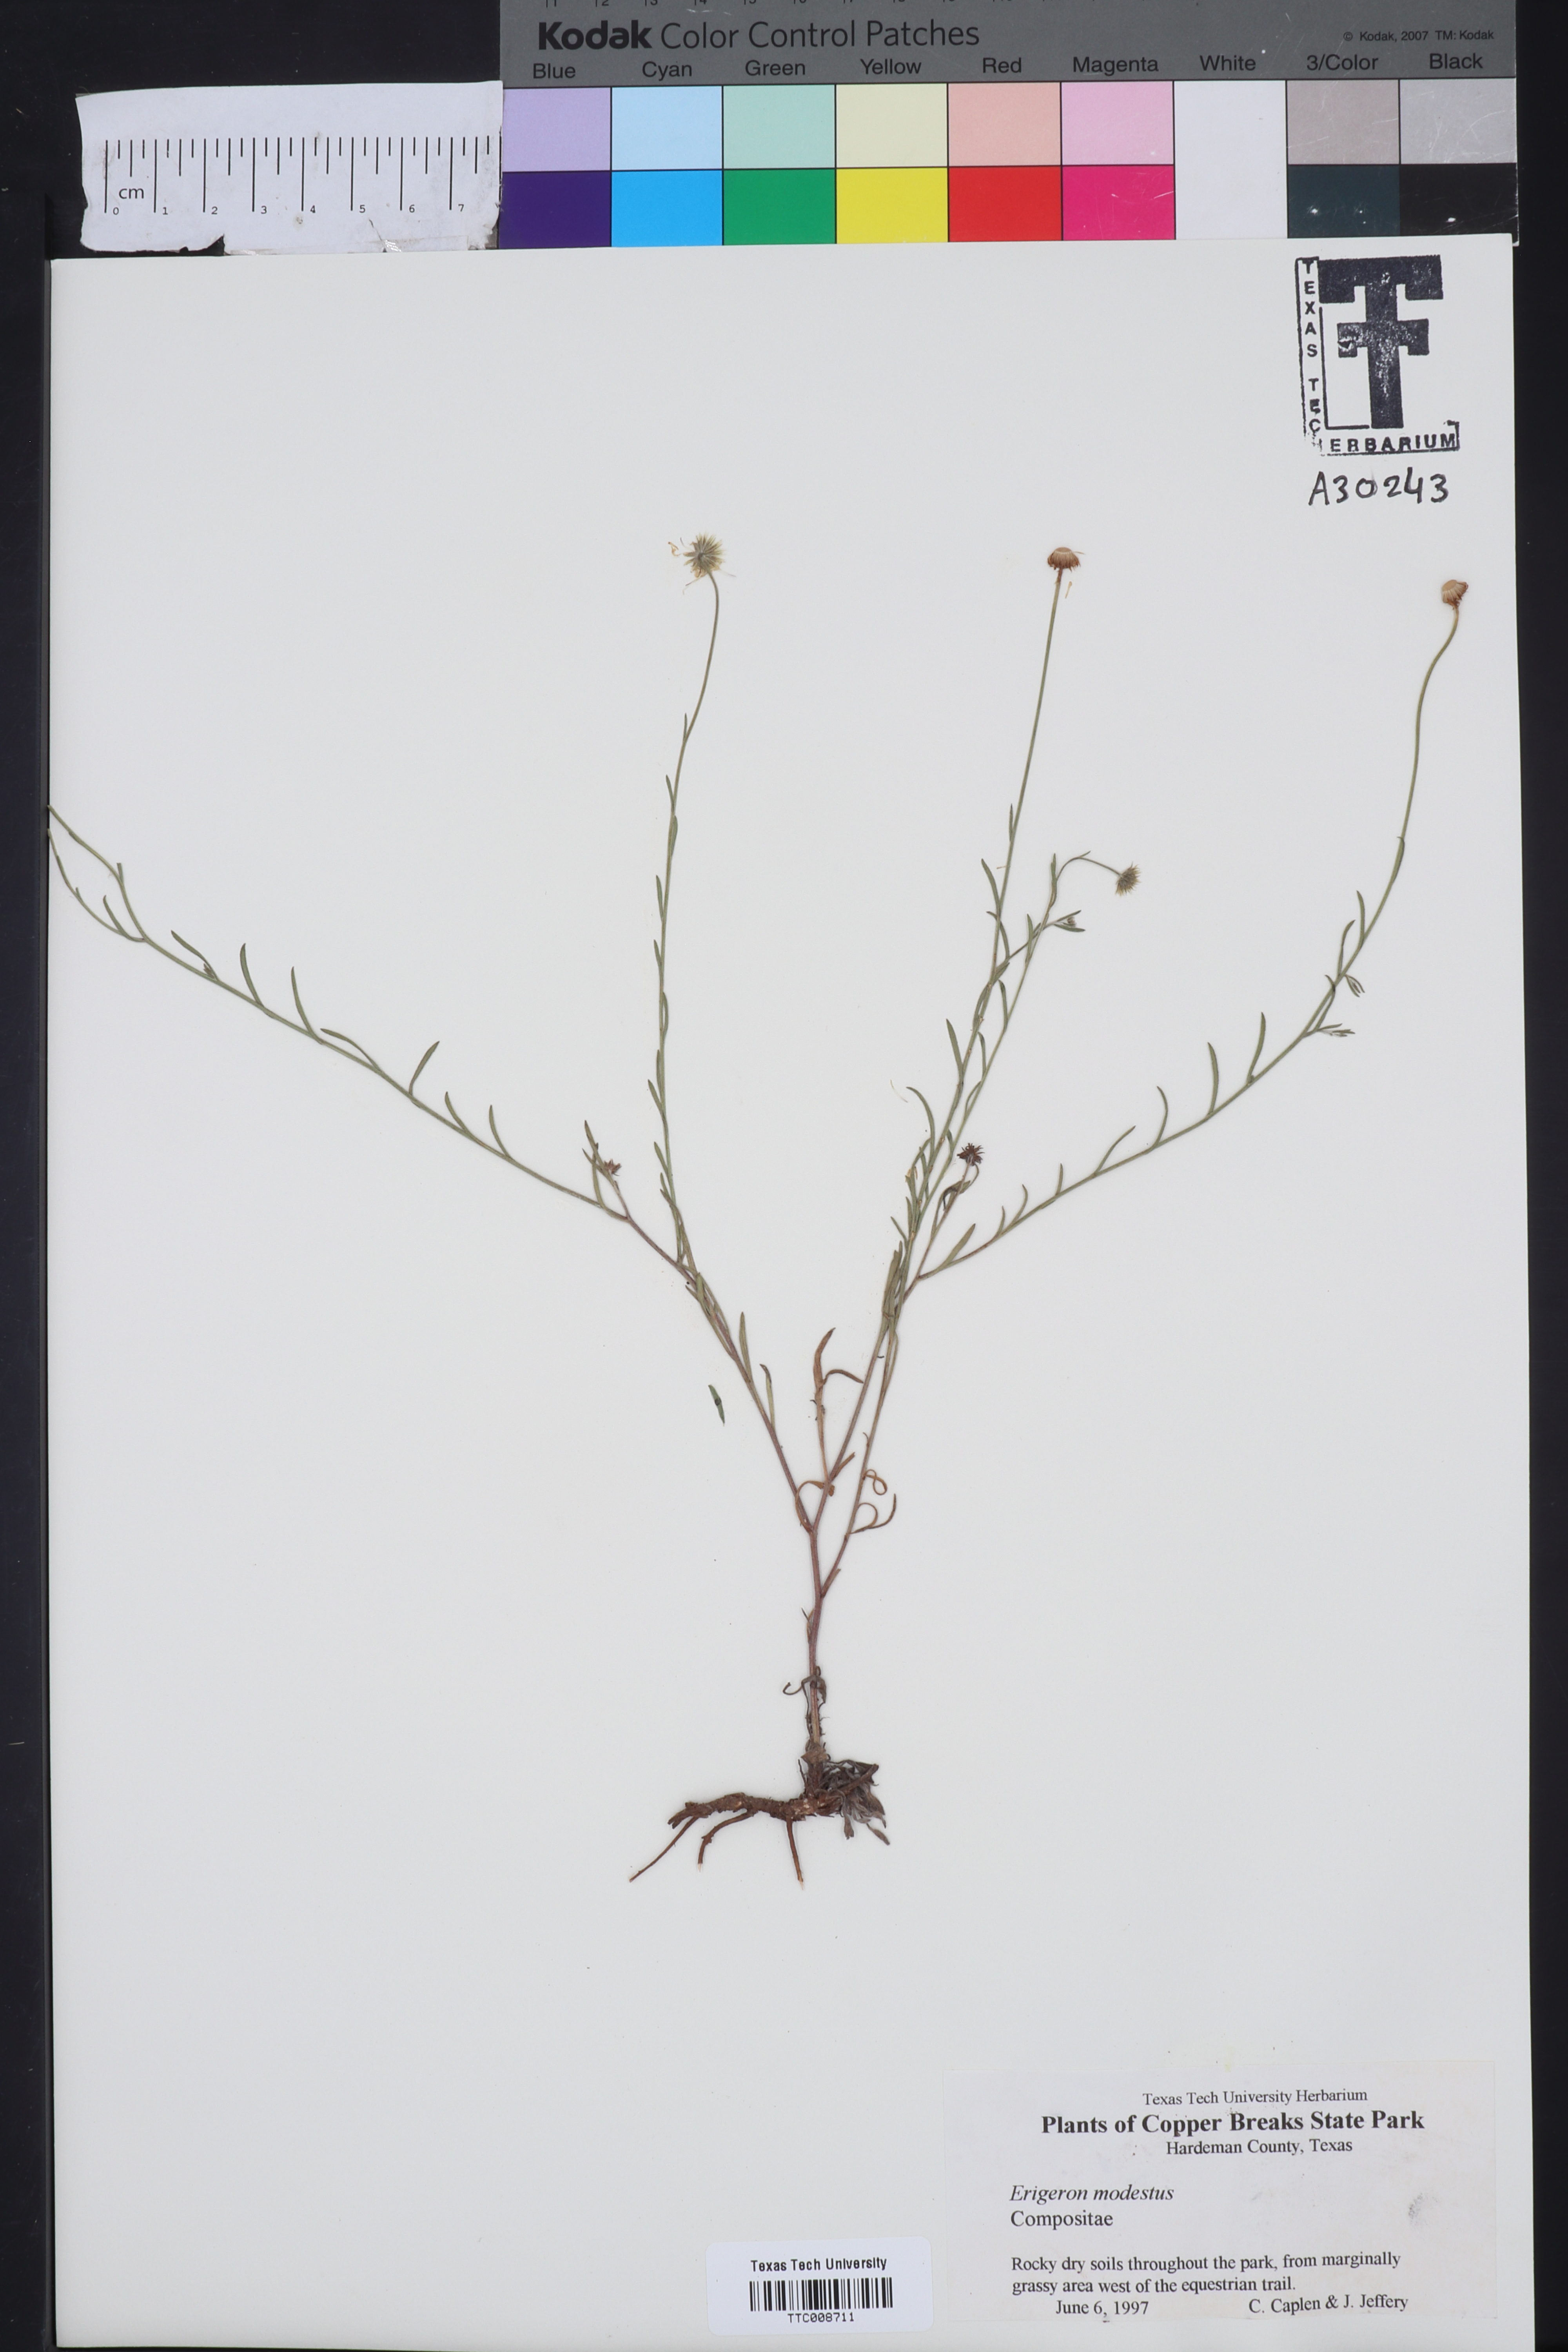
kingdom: Plantae
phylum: Tracheophyta
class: Magnoliopsida
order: Asterales
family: Asteraceae
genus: Erigeron
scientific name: Erigeron modestus
